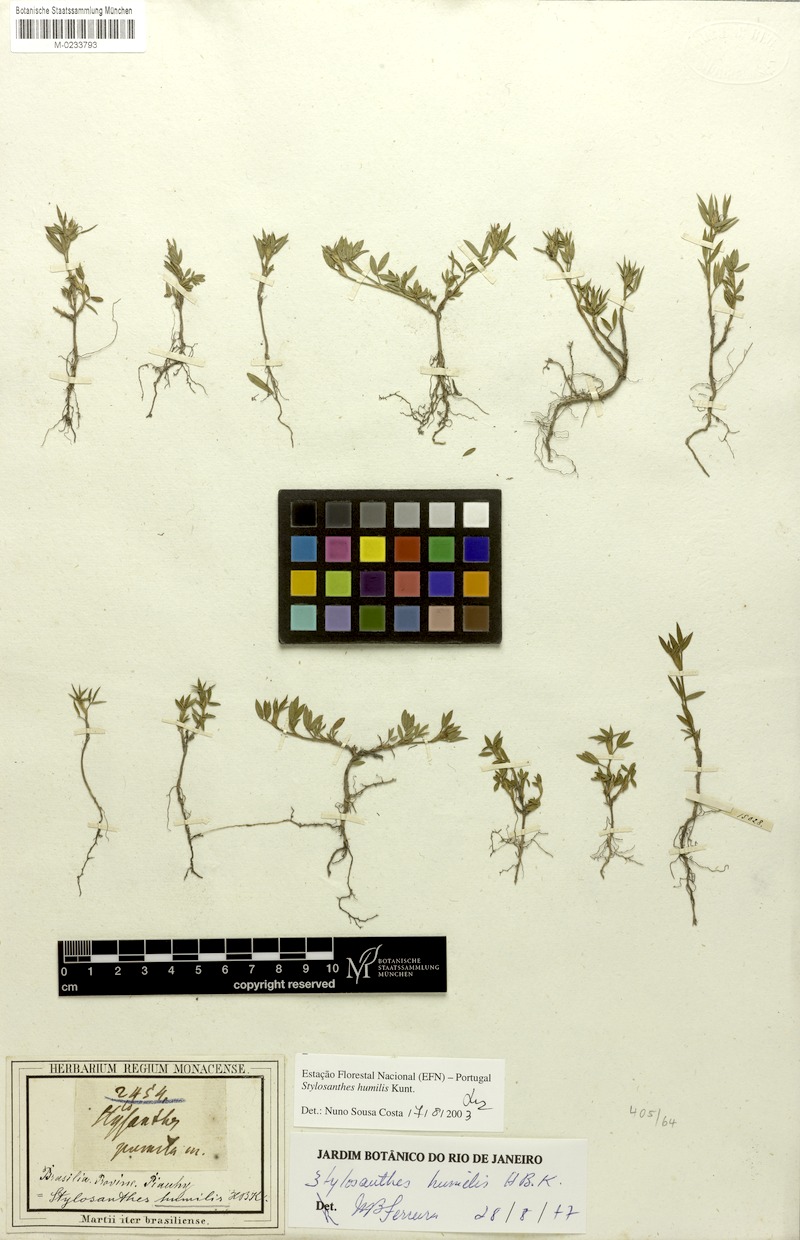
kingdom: Plantae
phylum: Tracheophyta
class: Magnoliopsida
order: Fabales
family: Fabaceae
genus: Stylosanthes
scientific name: Stylosanthes humilis
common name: Townsville stylo
